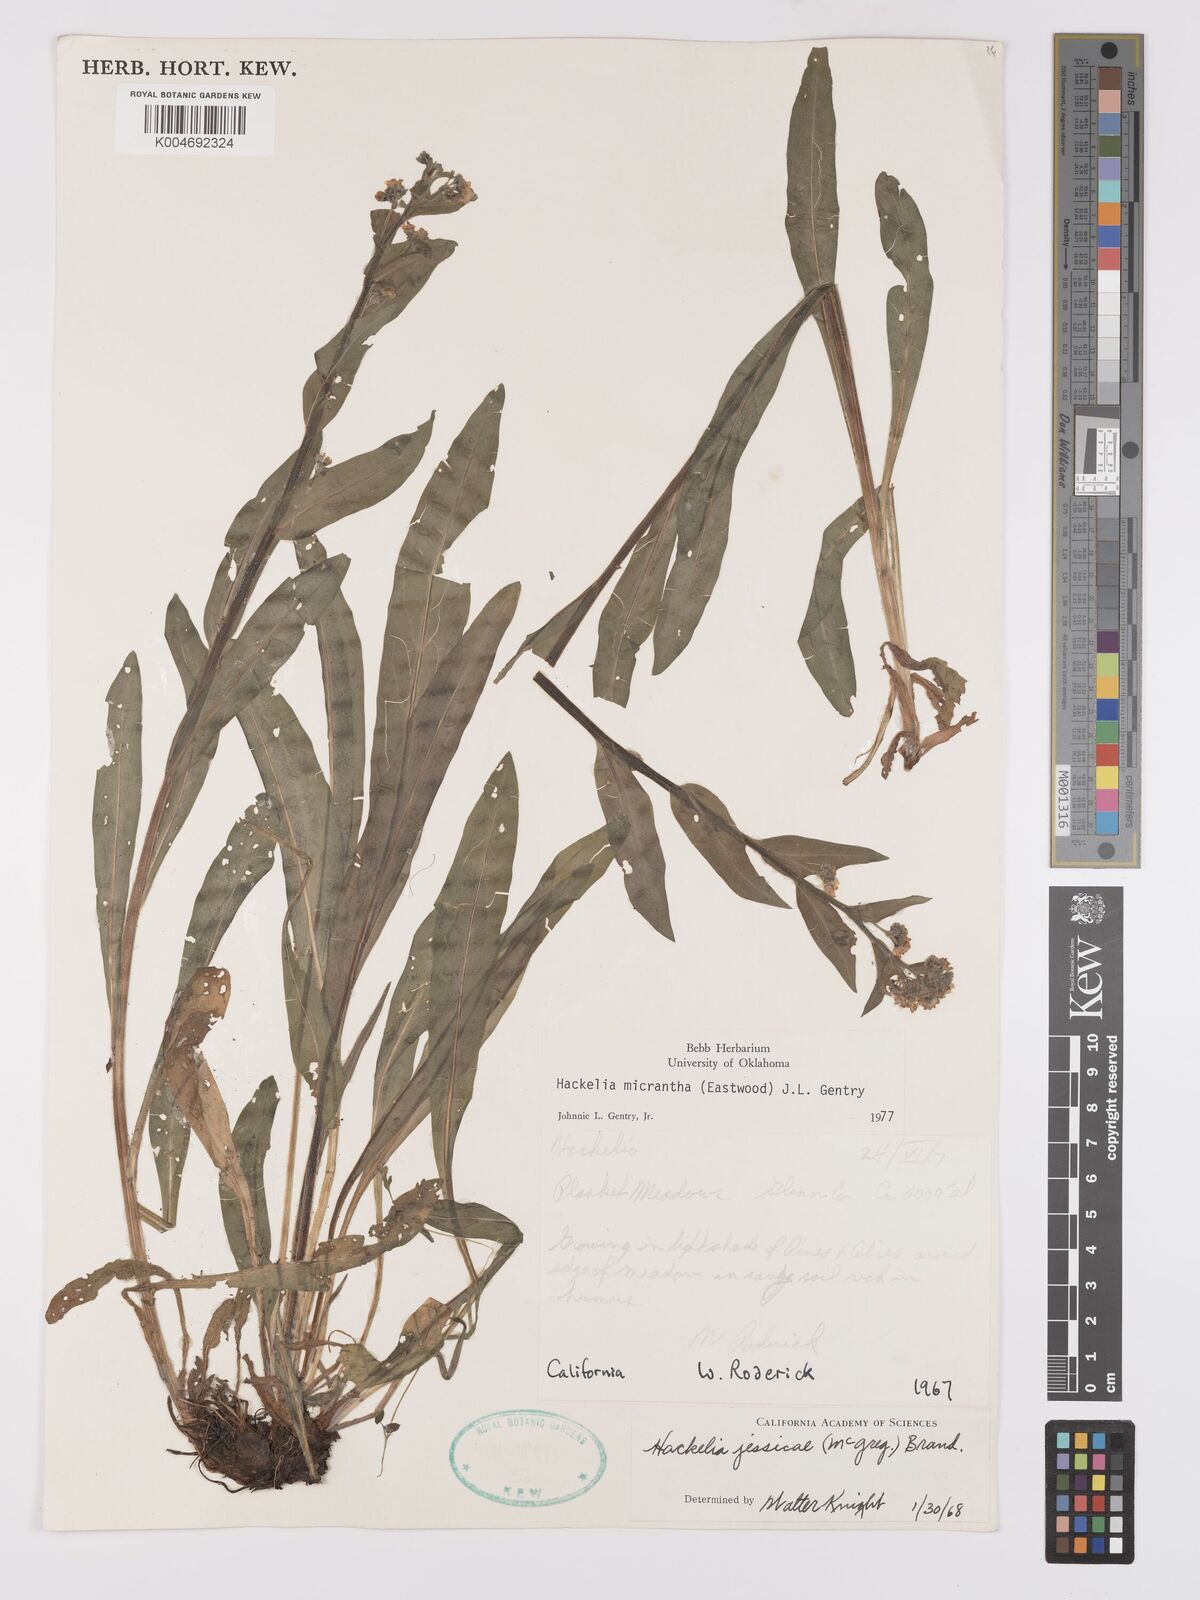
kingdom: Plantae
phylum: Tracheophyta
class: Magnoliopsida
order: Boraginales
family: Boraginaceae
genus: Hackelia
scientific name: Hackelia micrantha
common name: Meadow stickseed
